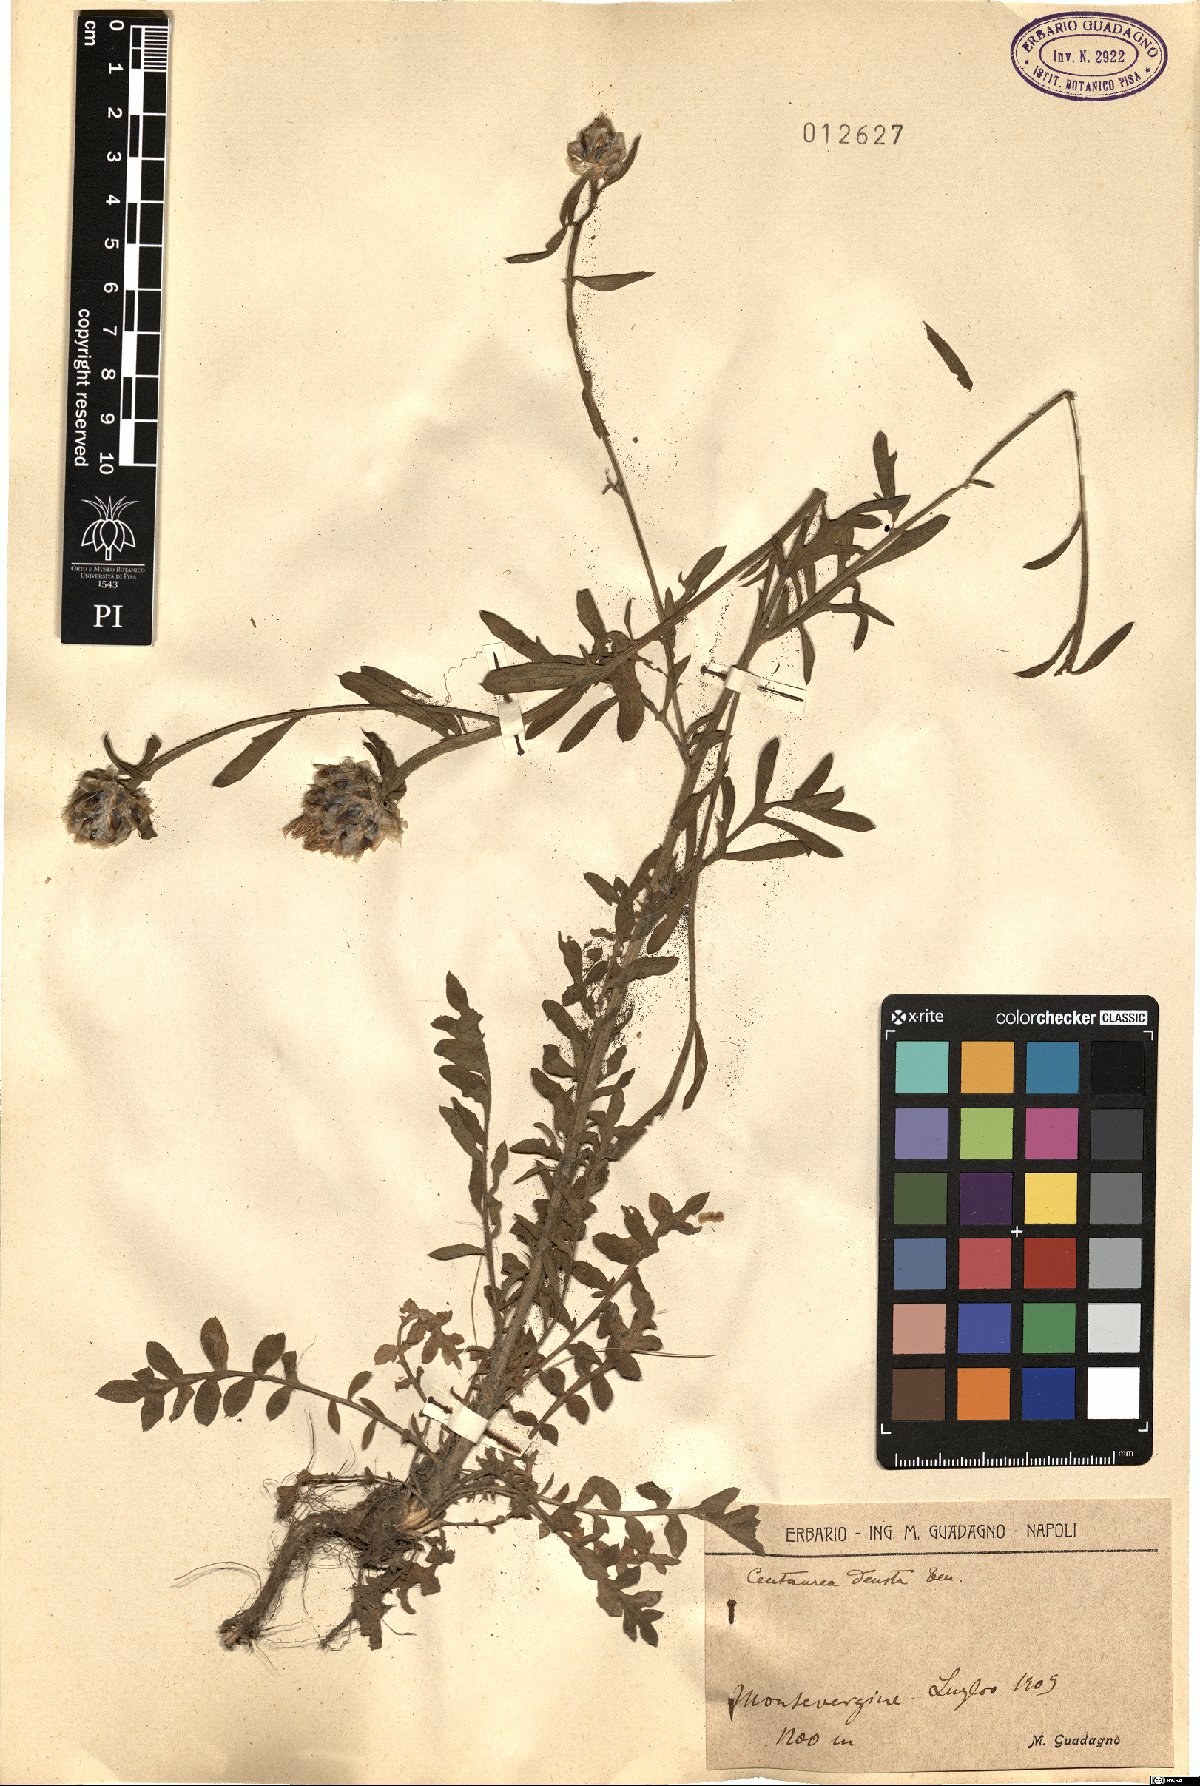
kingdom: Plantae
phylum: Tracheophyta
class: Magnoliopsida
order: Asterales
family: Asteraceae
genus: Centaurea
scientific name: Centaurea deusta
